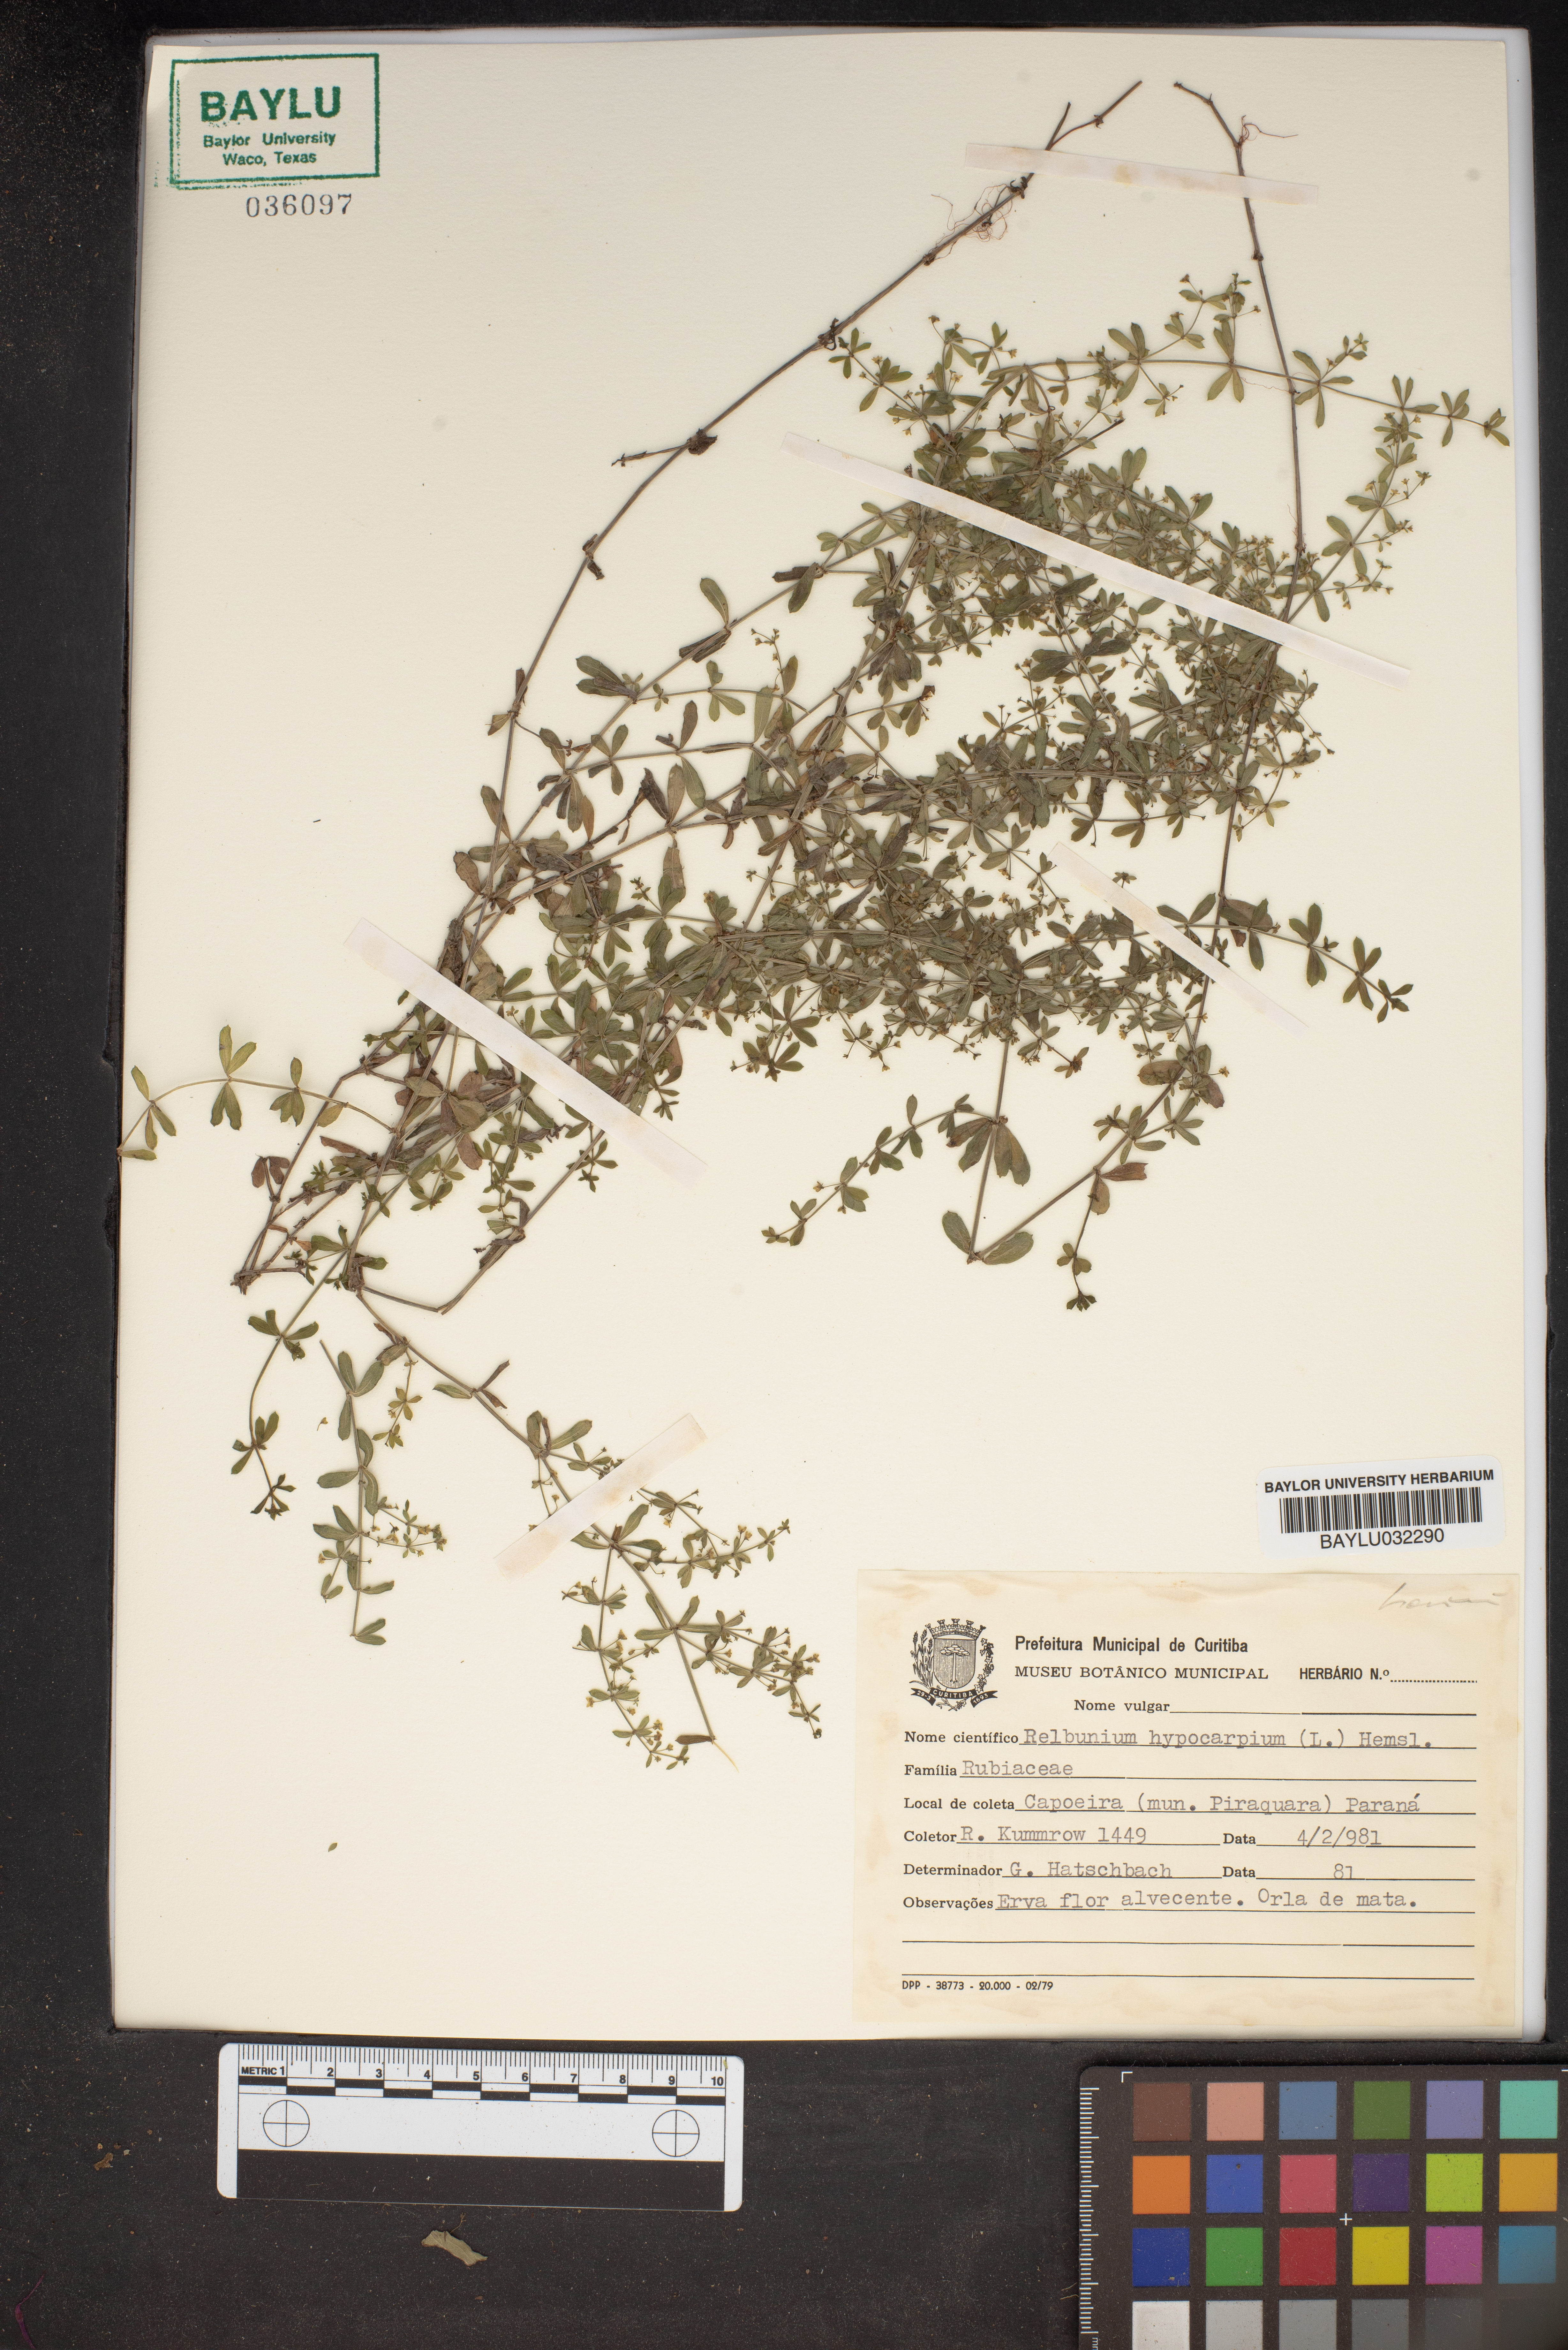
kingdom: Plantae
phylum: Tracheophyta
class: Magnoliopsida
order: Gentianales
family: Rubiaceae
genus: Galium
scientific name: Galium hypocarpium
